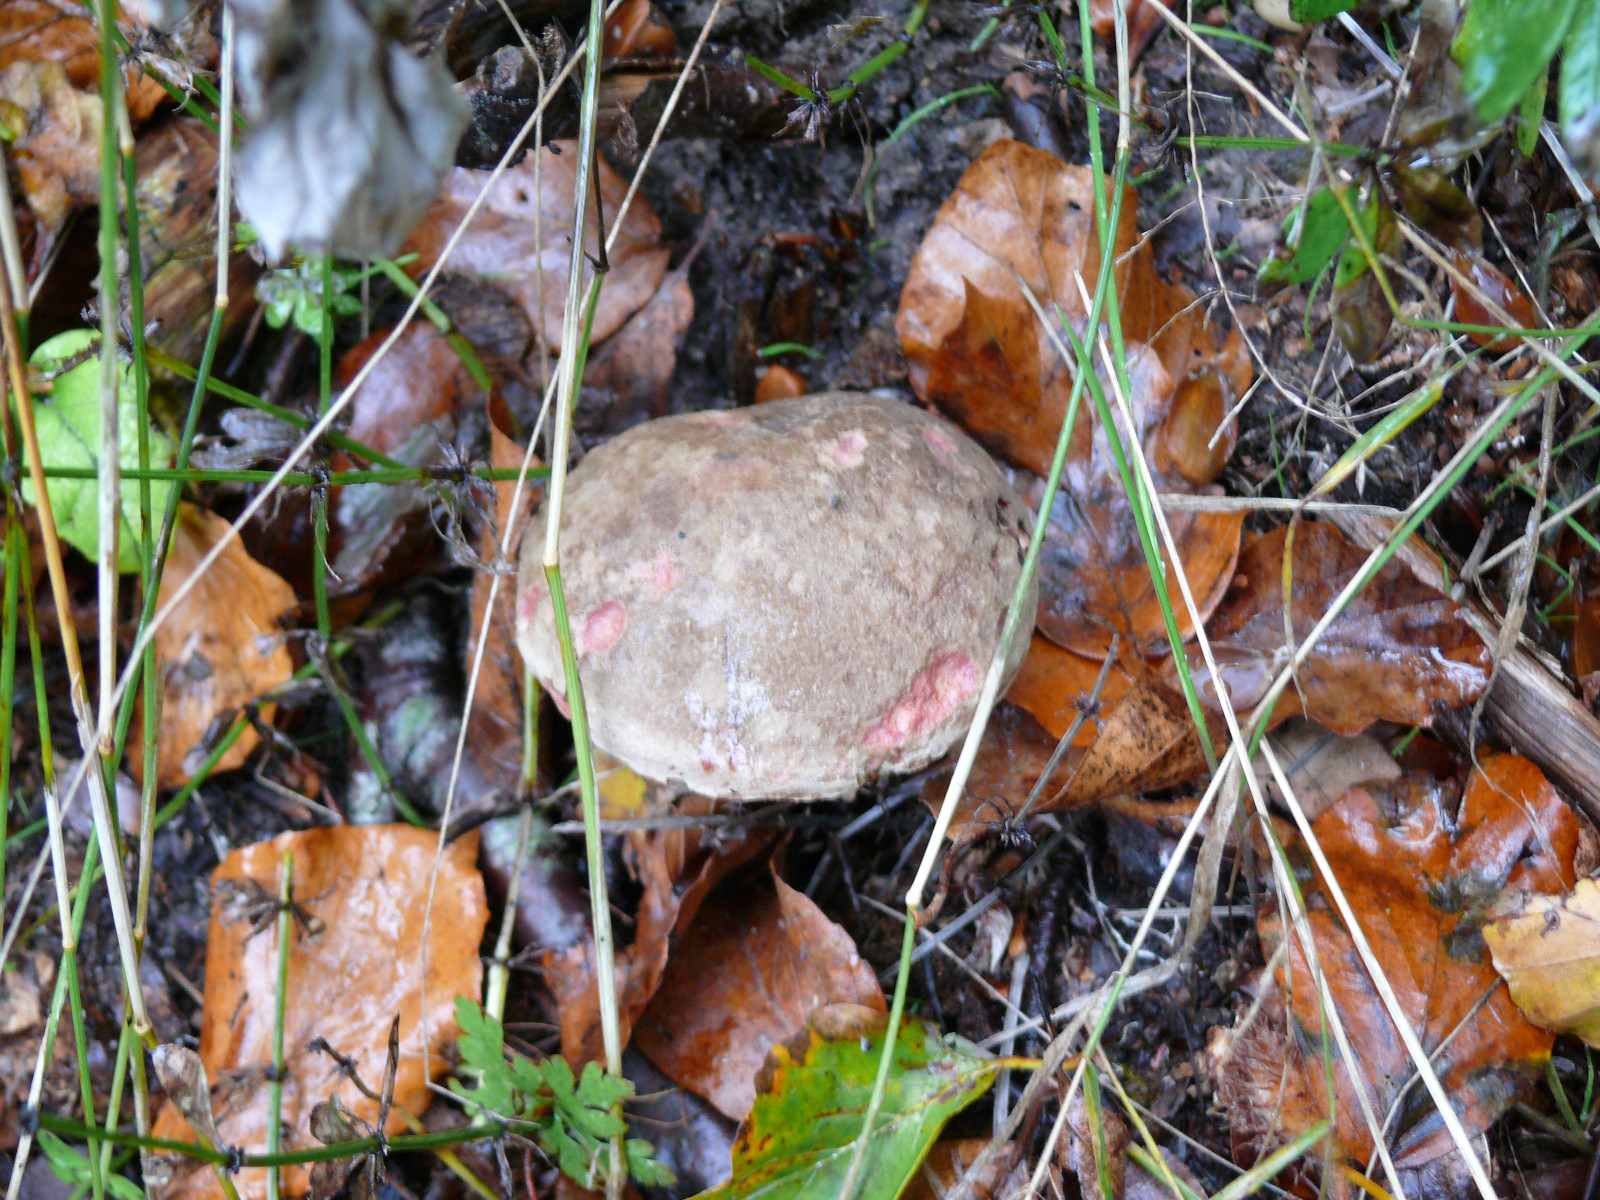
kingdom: Fungi
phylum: Basidiomycota
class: Agaricomycetes
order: Boletales
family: Boletaceae
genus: Xerocomellus
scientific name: Xerocomellus
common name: dværgrørhat
